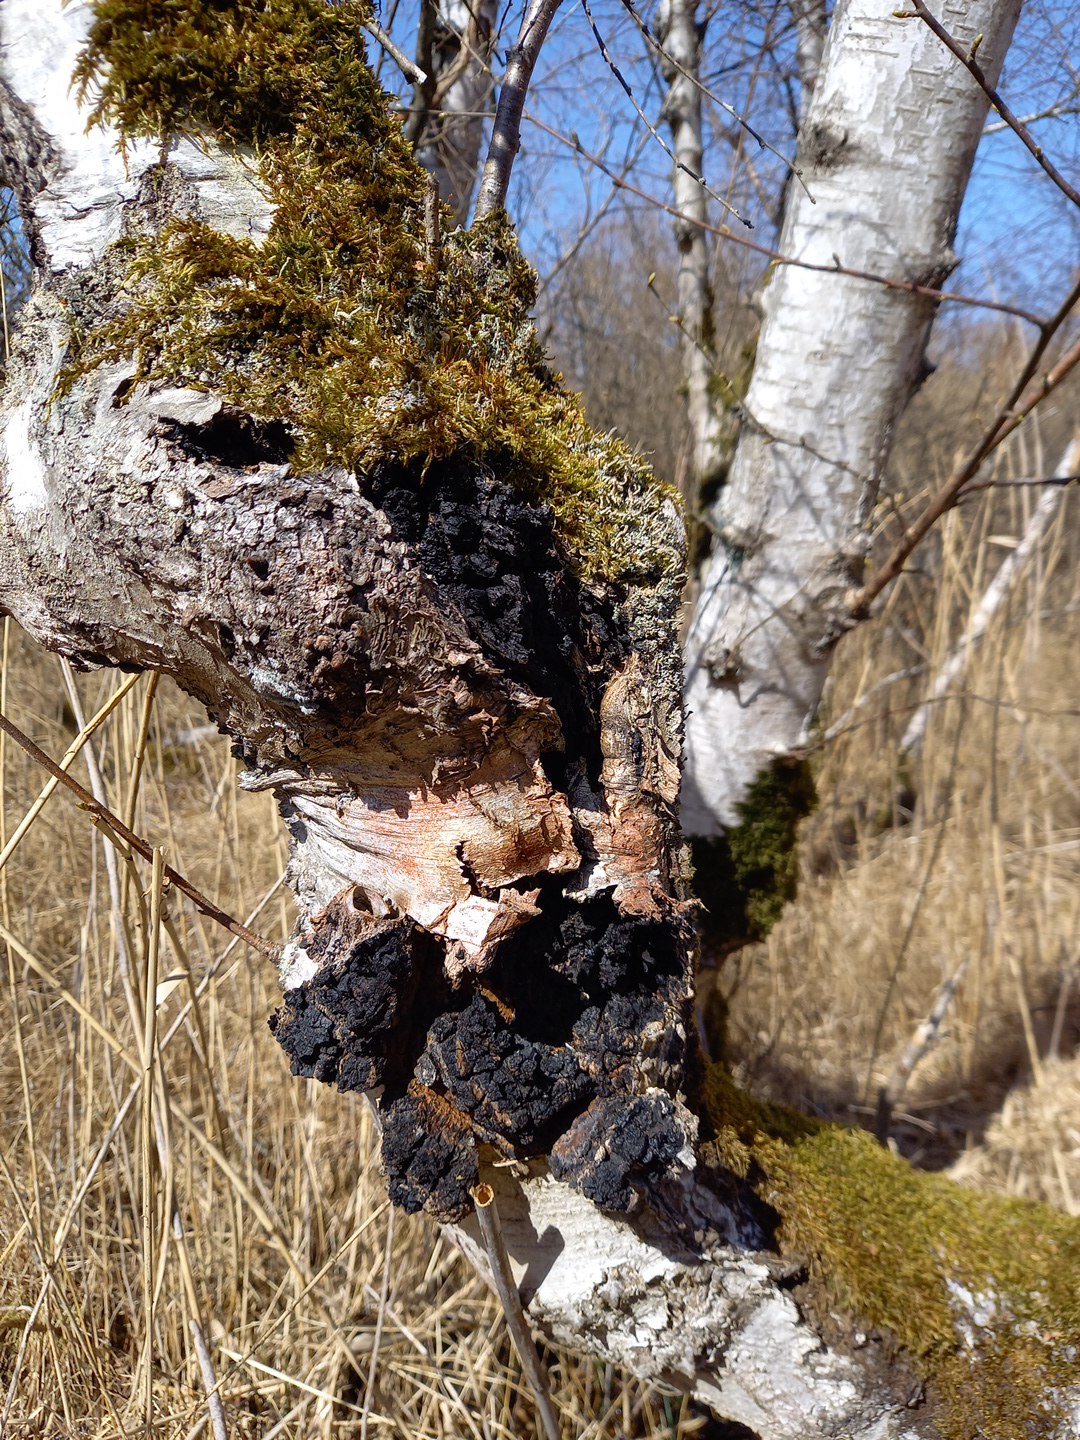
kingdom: Fungi
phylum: Basidiomycota
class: Agaricomycetes
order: Hymenochaetales
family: Hymenochaetaceae
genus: Inonotus
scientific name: Inonotus obliquus
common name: birke-spejlporesvamp
